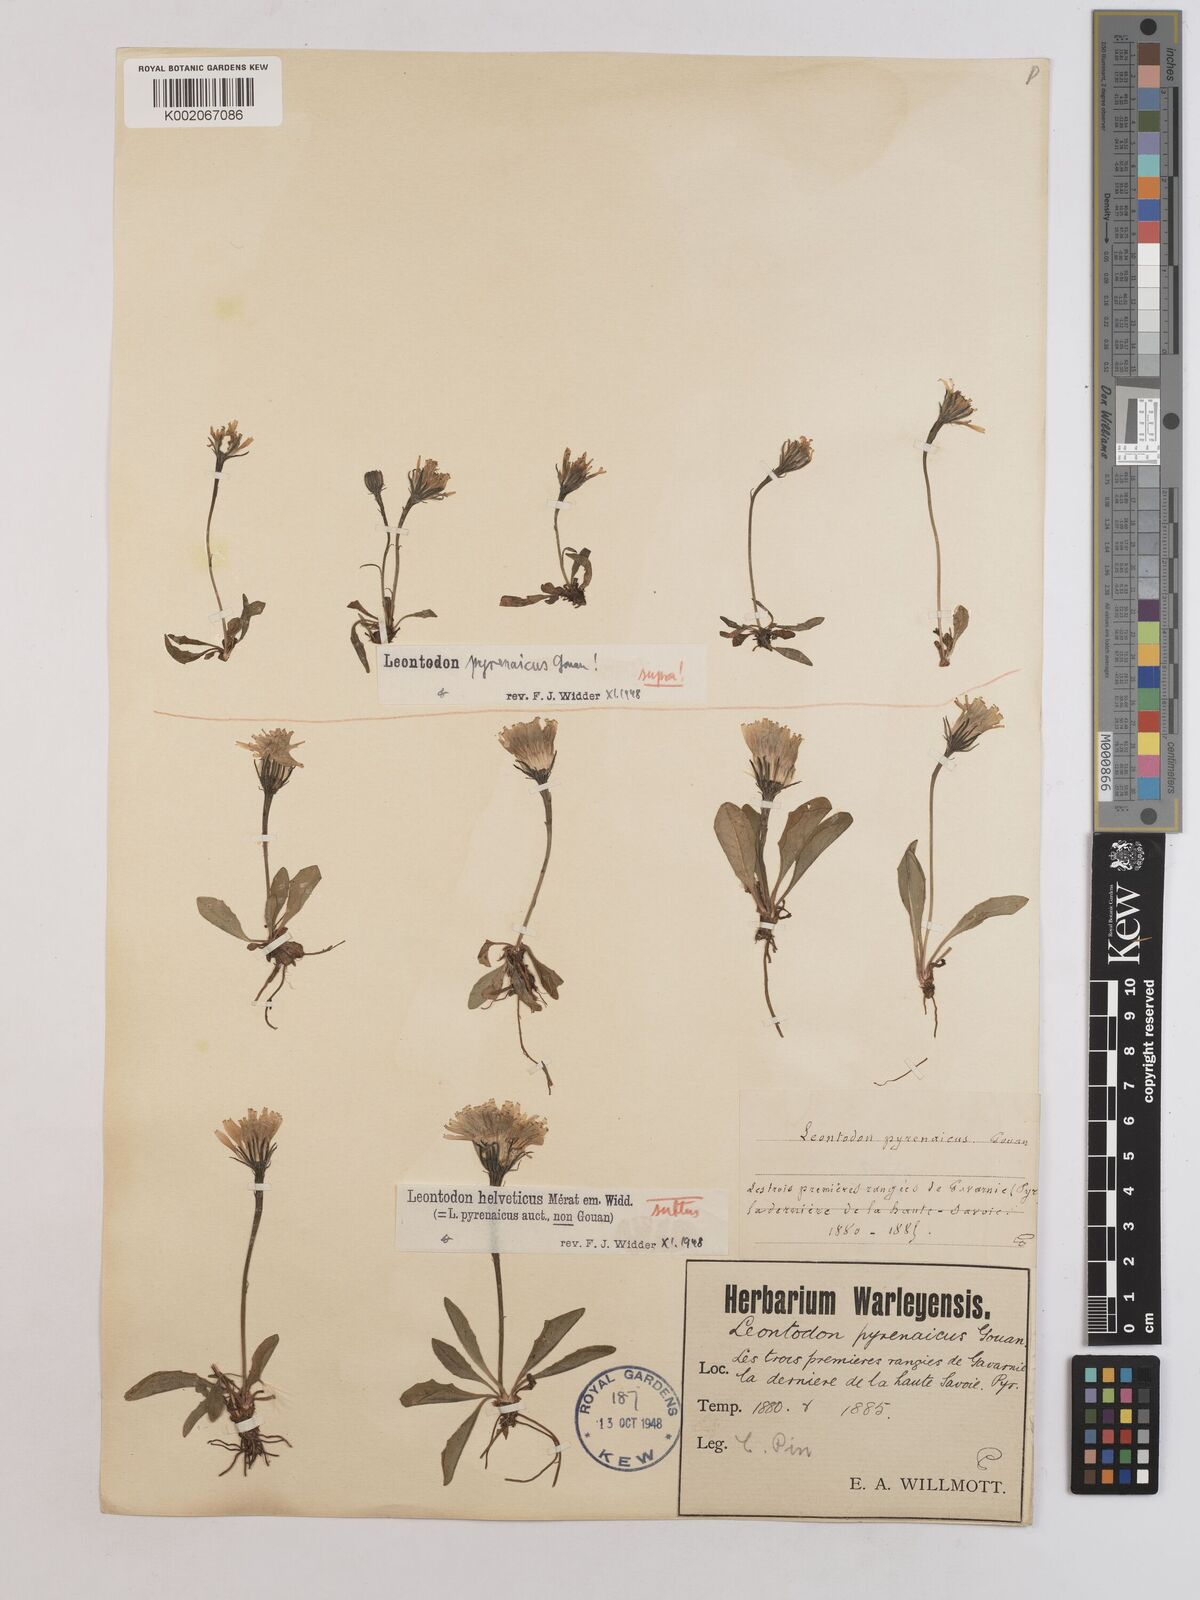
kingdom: Plantae
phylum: Tracheophyta
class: Magnoliopsida
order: Asterales
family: Asteraceae
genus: Scorzoneroides
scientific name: Scorzoneroides pyrenaica
